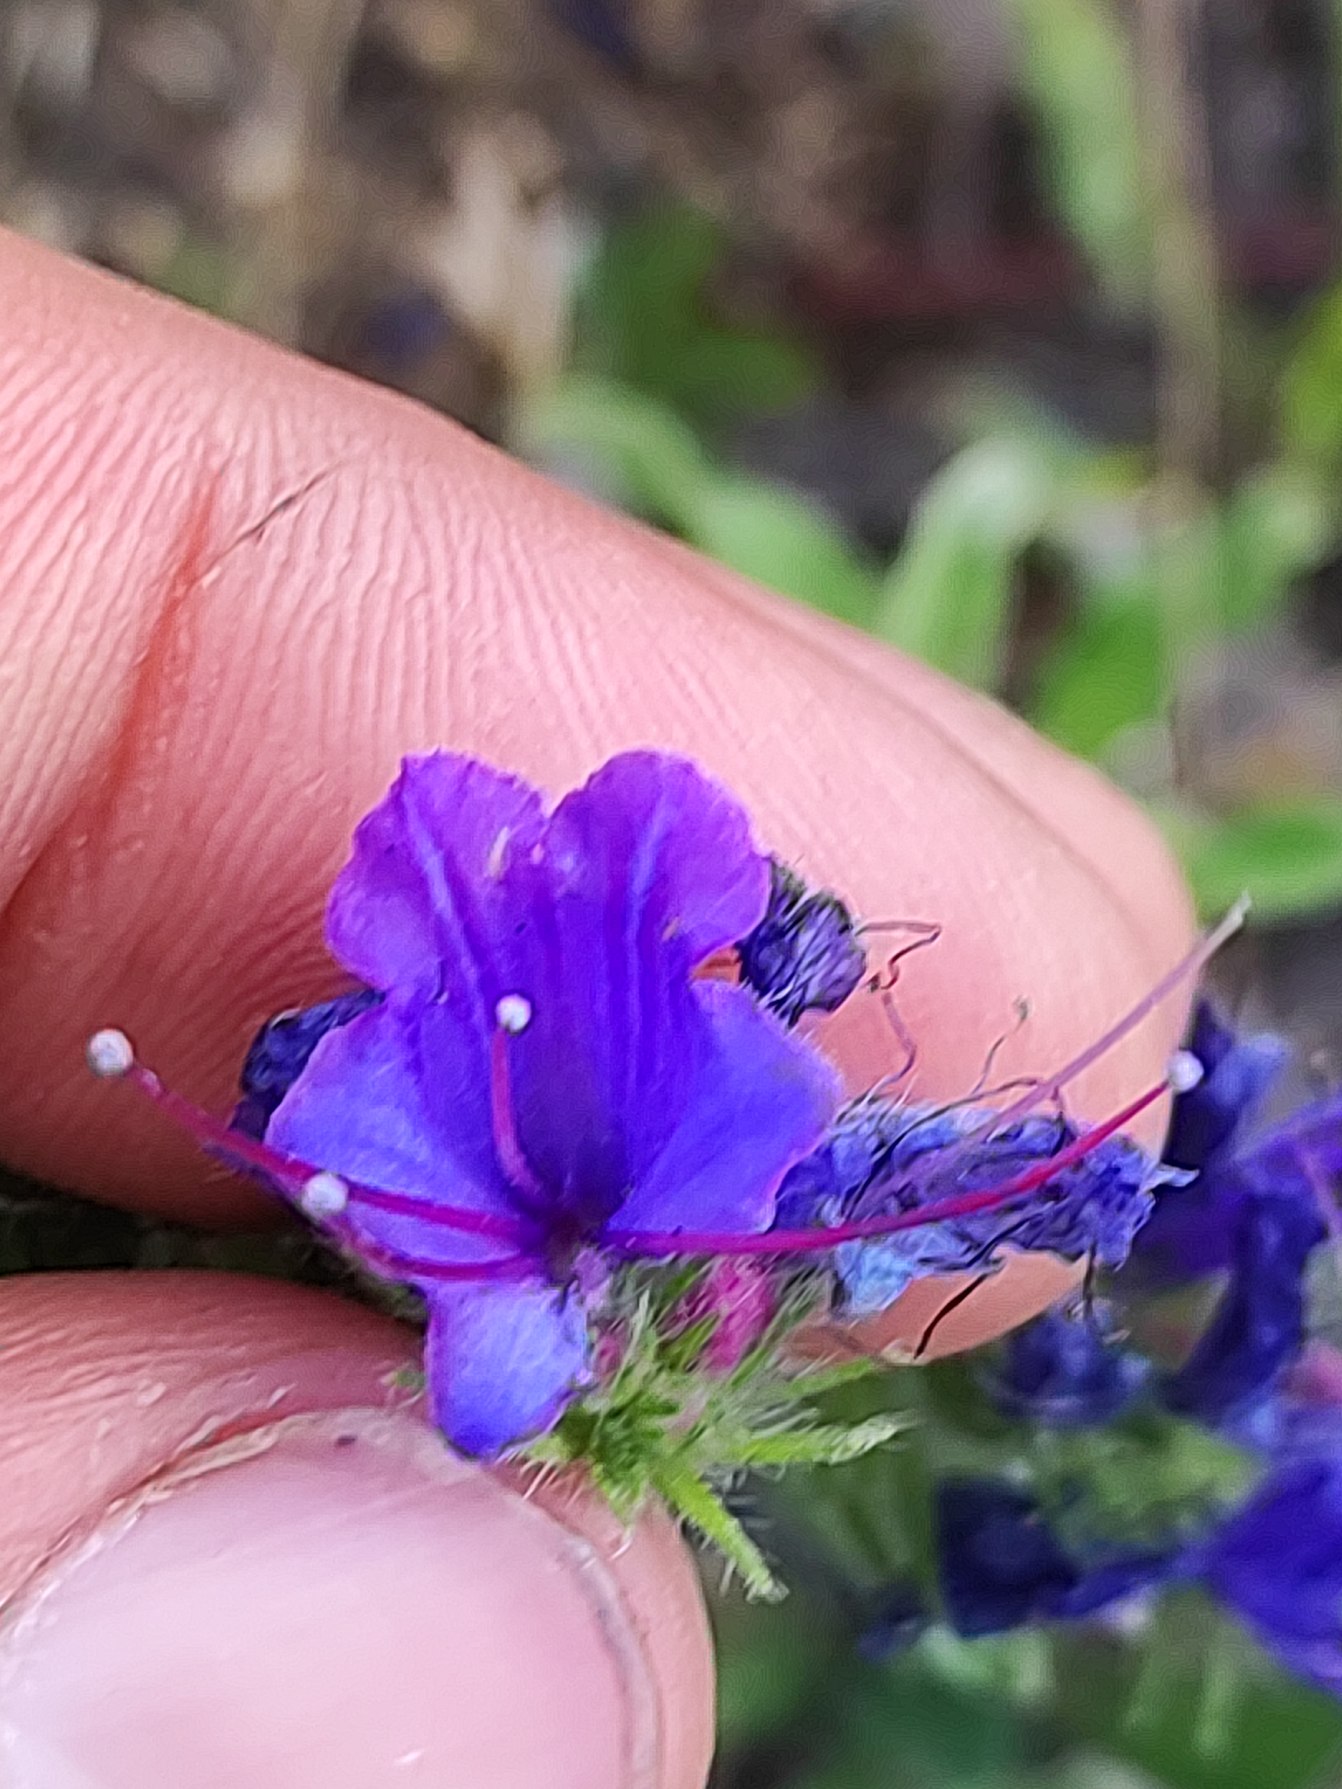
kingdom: Plantae
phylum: Tracheophyta
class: Magnoliopsida
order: Boraginales
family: Boraginaceae
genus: Echium
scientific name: Echium vulgare
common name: Slangehoved
